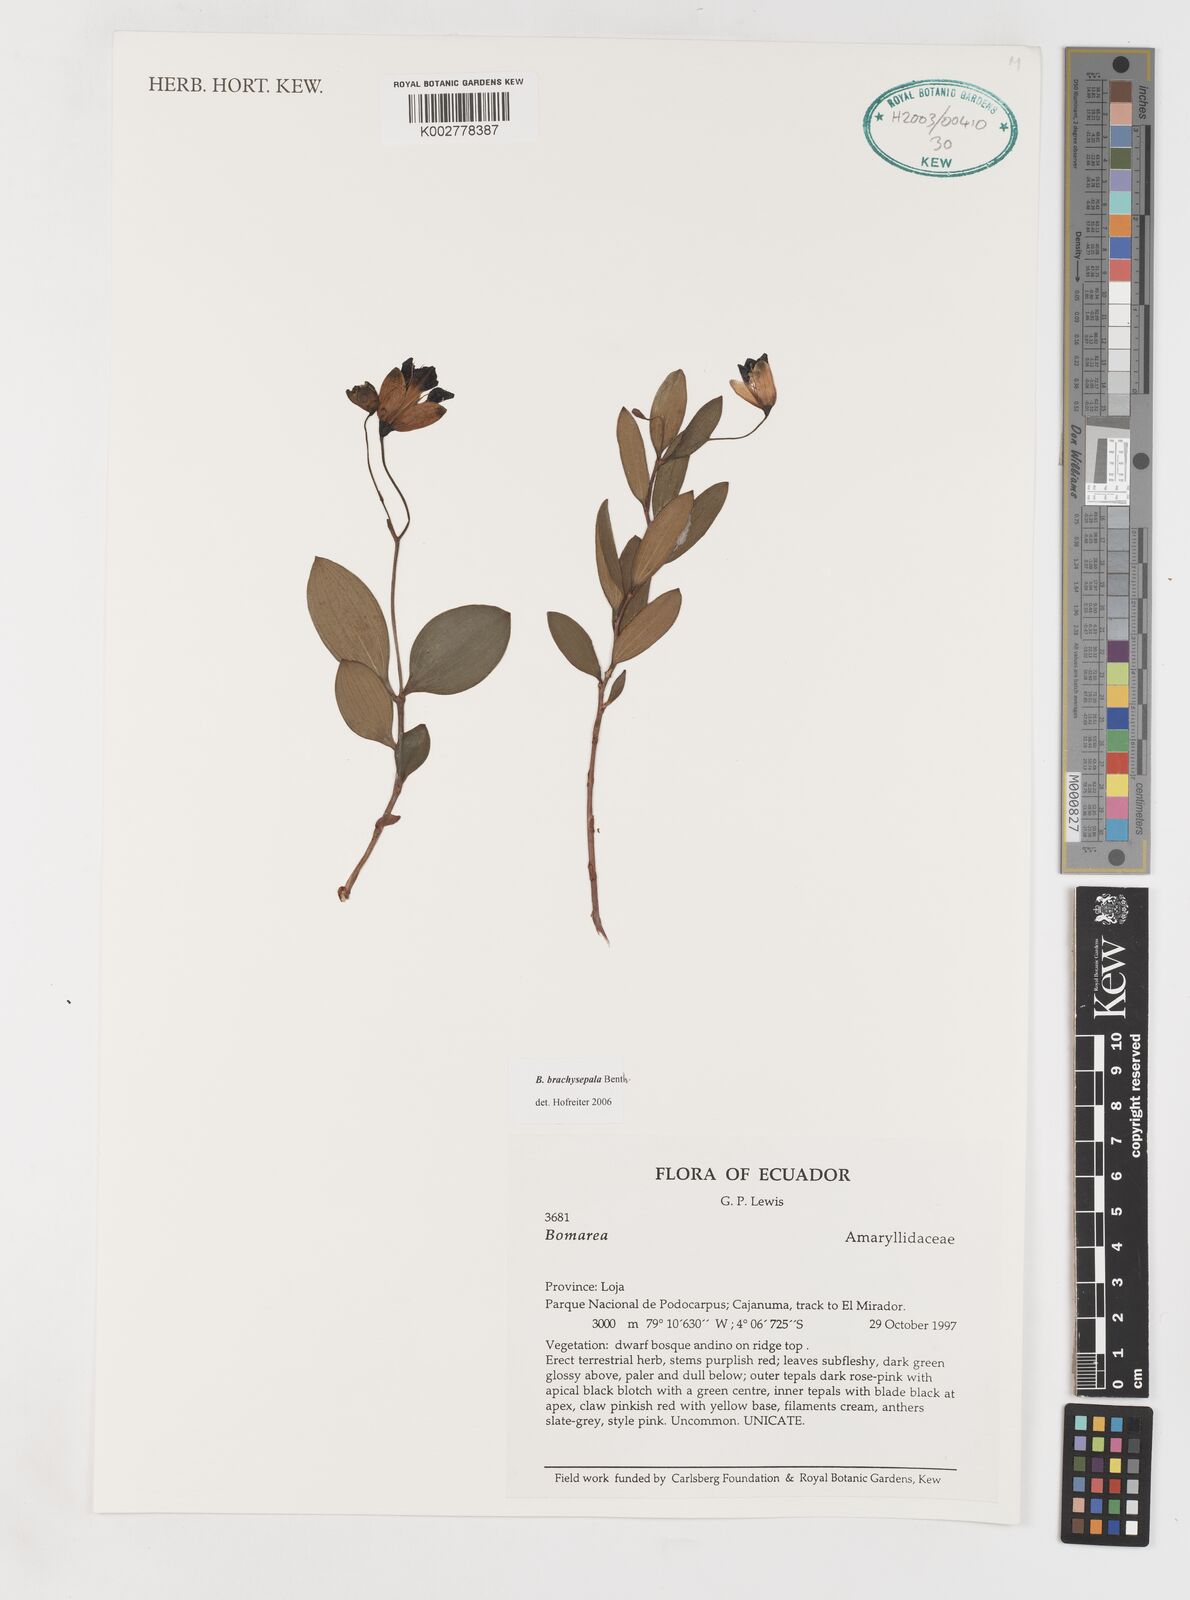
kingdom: Plantae
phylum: Tracheophyta
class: Liliopsida
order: Liliales
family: Alstroemeriaceae
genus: Bomarea
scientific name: Bomarea brachysepala
